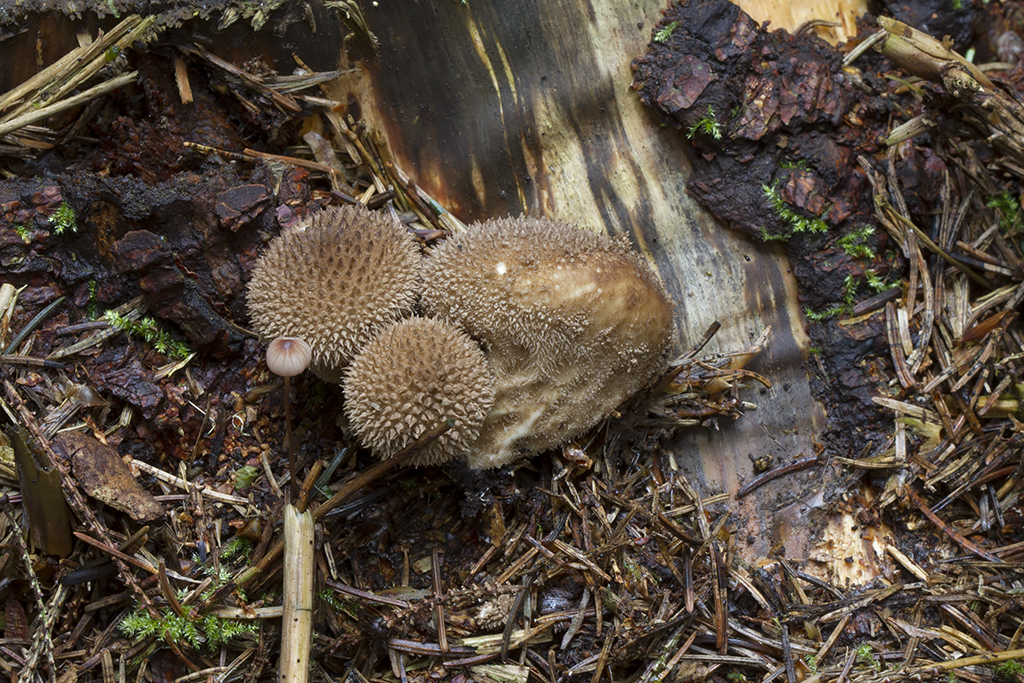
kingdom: Fungi
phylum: Basidiomycota
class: Agaricomycetes
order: Agaricales
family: Lycoperdaceae
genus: Lycoperdon
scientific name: Lycoperdon echinatum
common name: pindsvine-støvbold
